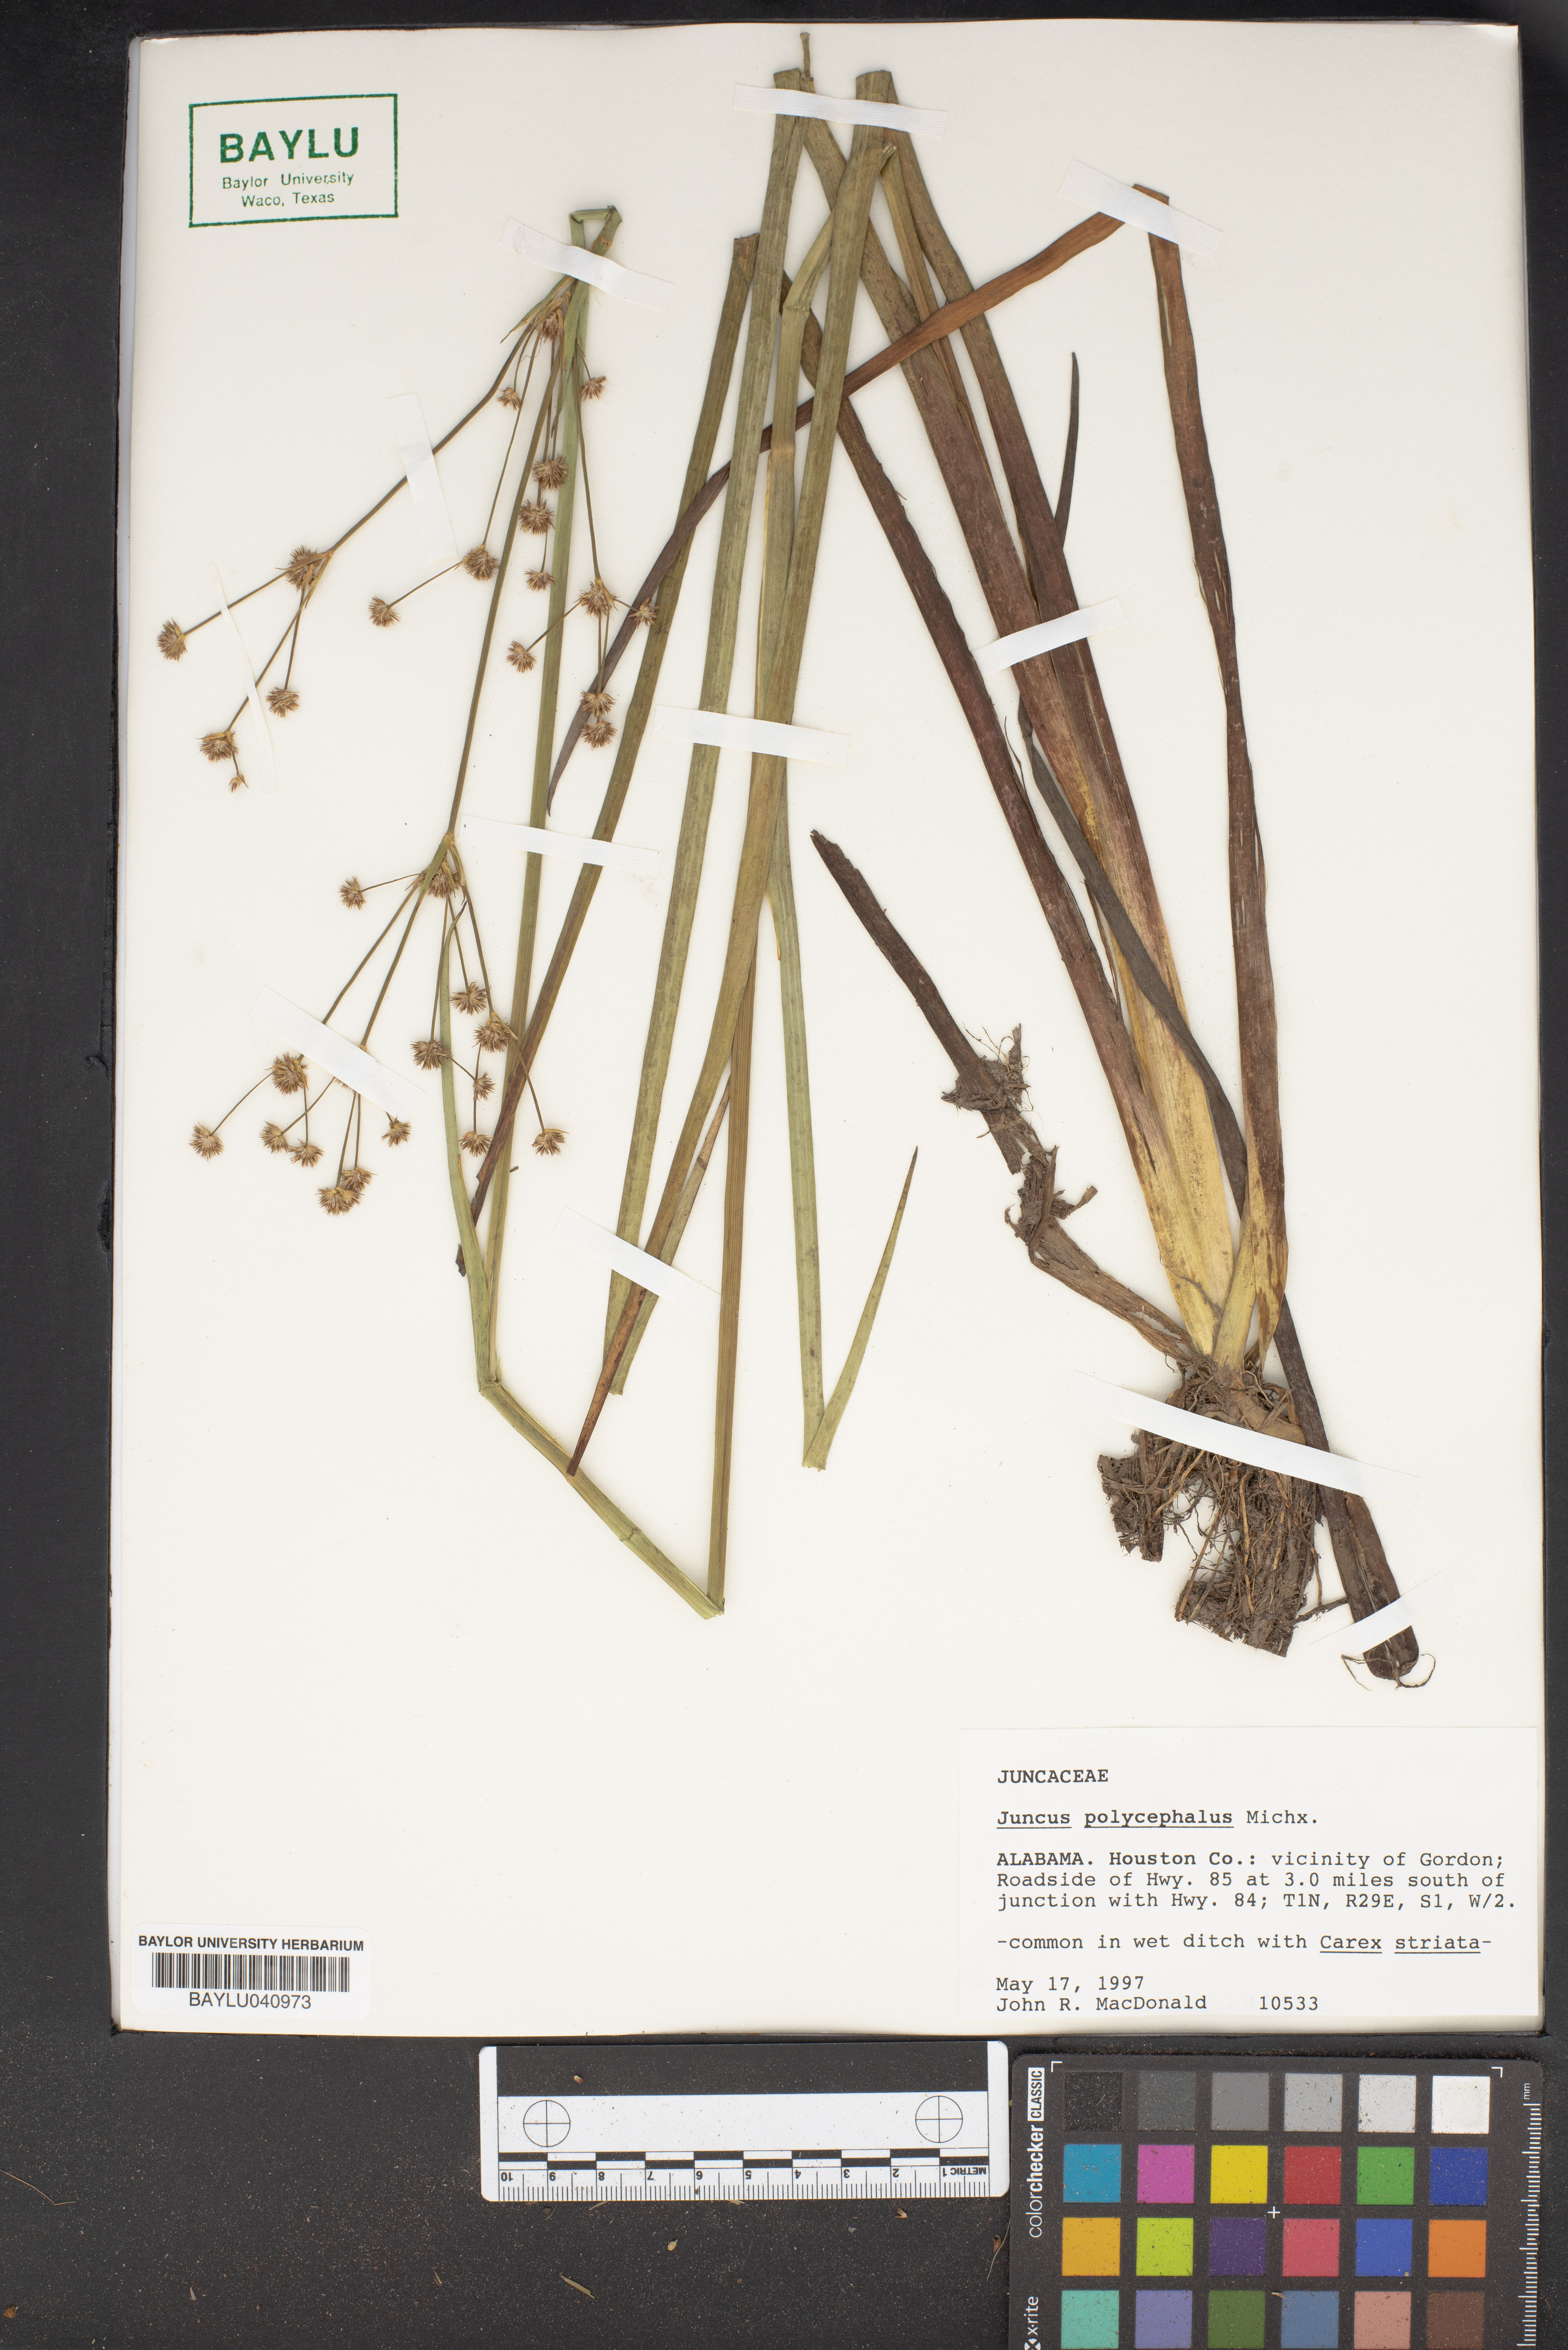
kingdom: Plantae
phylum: Tracheophyta
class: Liliopsida
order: Poales
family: Juncaceae
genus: Juncus
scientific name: Juncus polycephalus
